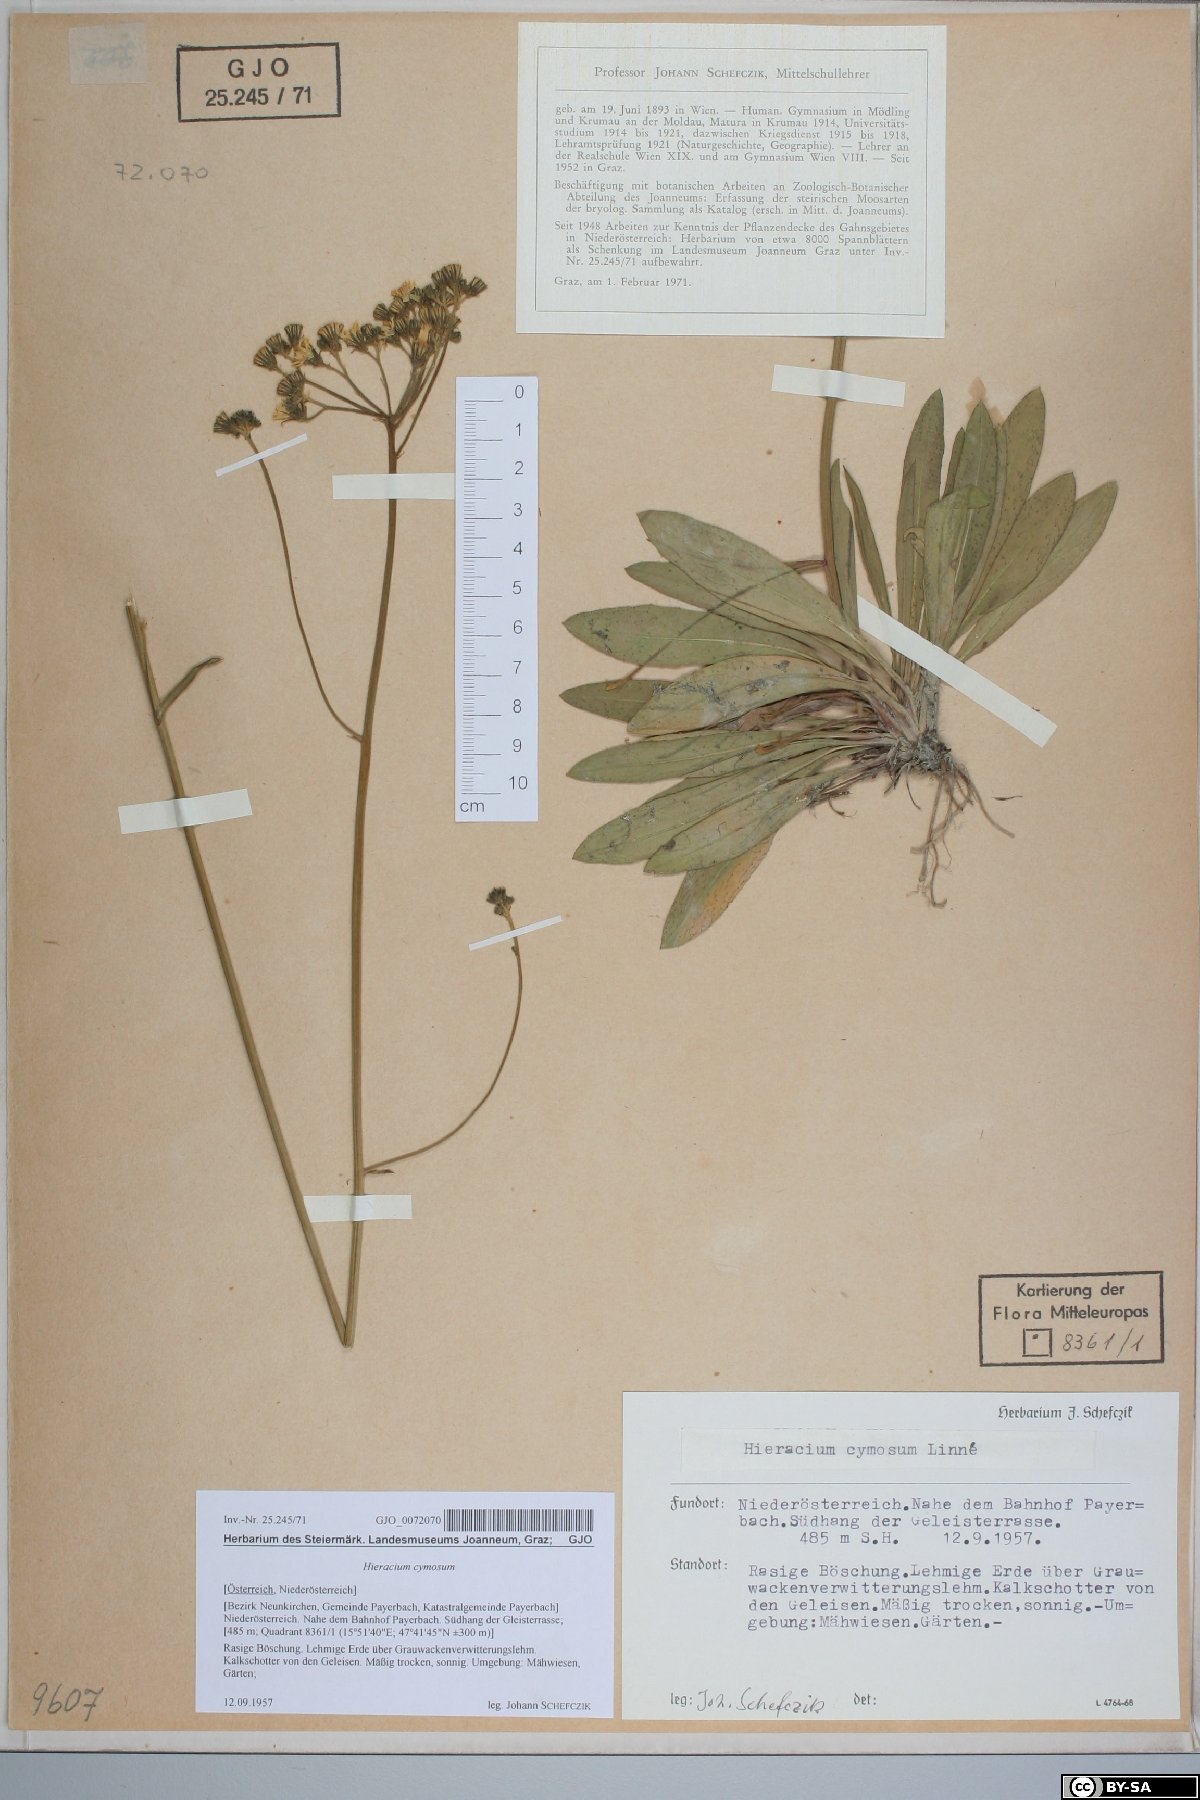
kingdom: Plantae
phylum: Tracheophyta
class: Magnoliopsida
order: Asterales
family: Asteraceae
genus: Pilosella
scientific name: Pilosella cymosa
